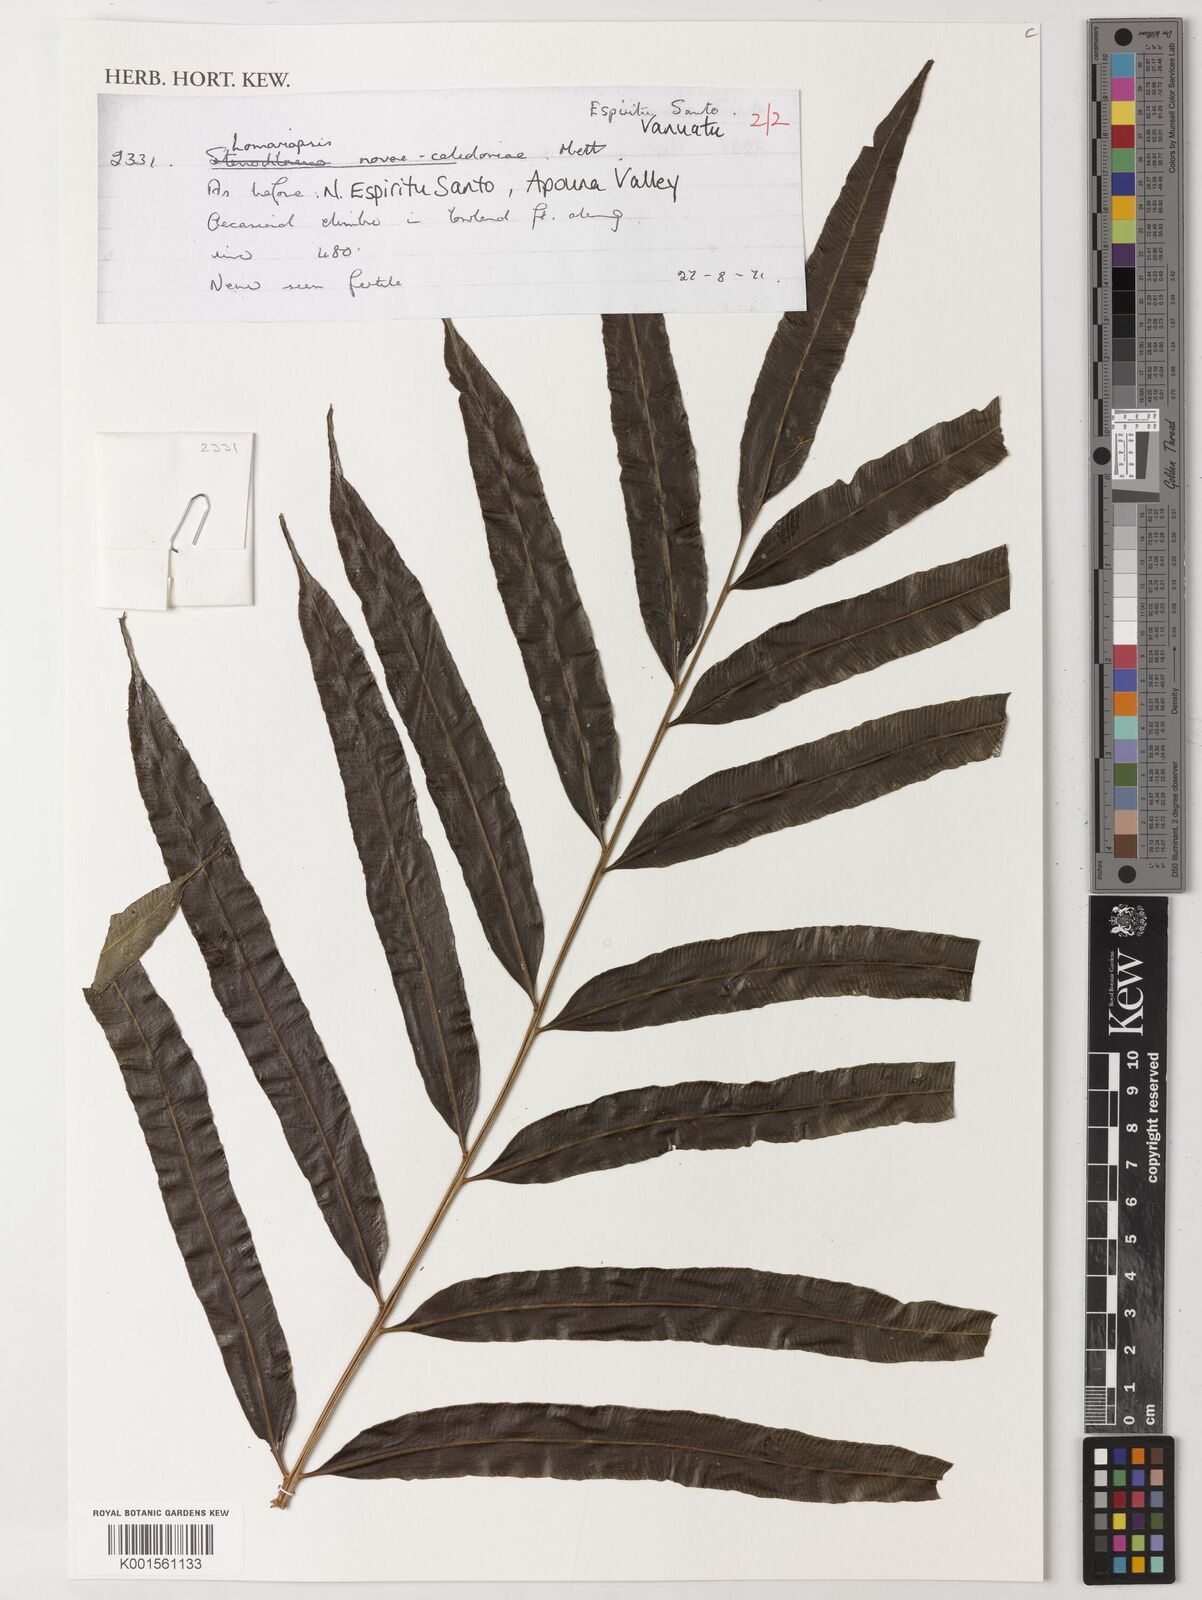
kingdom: Plantae
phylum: Tracheophyta
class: Polypodiopsida
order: Polypodiales
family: Lomariopsidaceae
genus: Lomariopsis
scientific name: Lomariopsis novae-caledoniae
